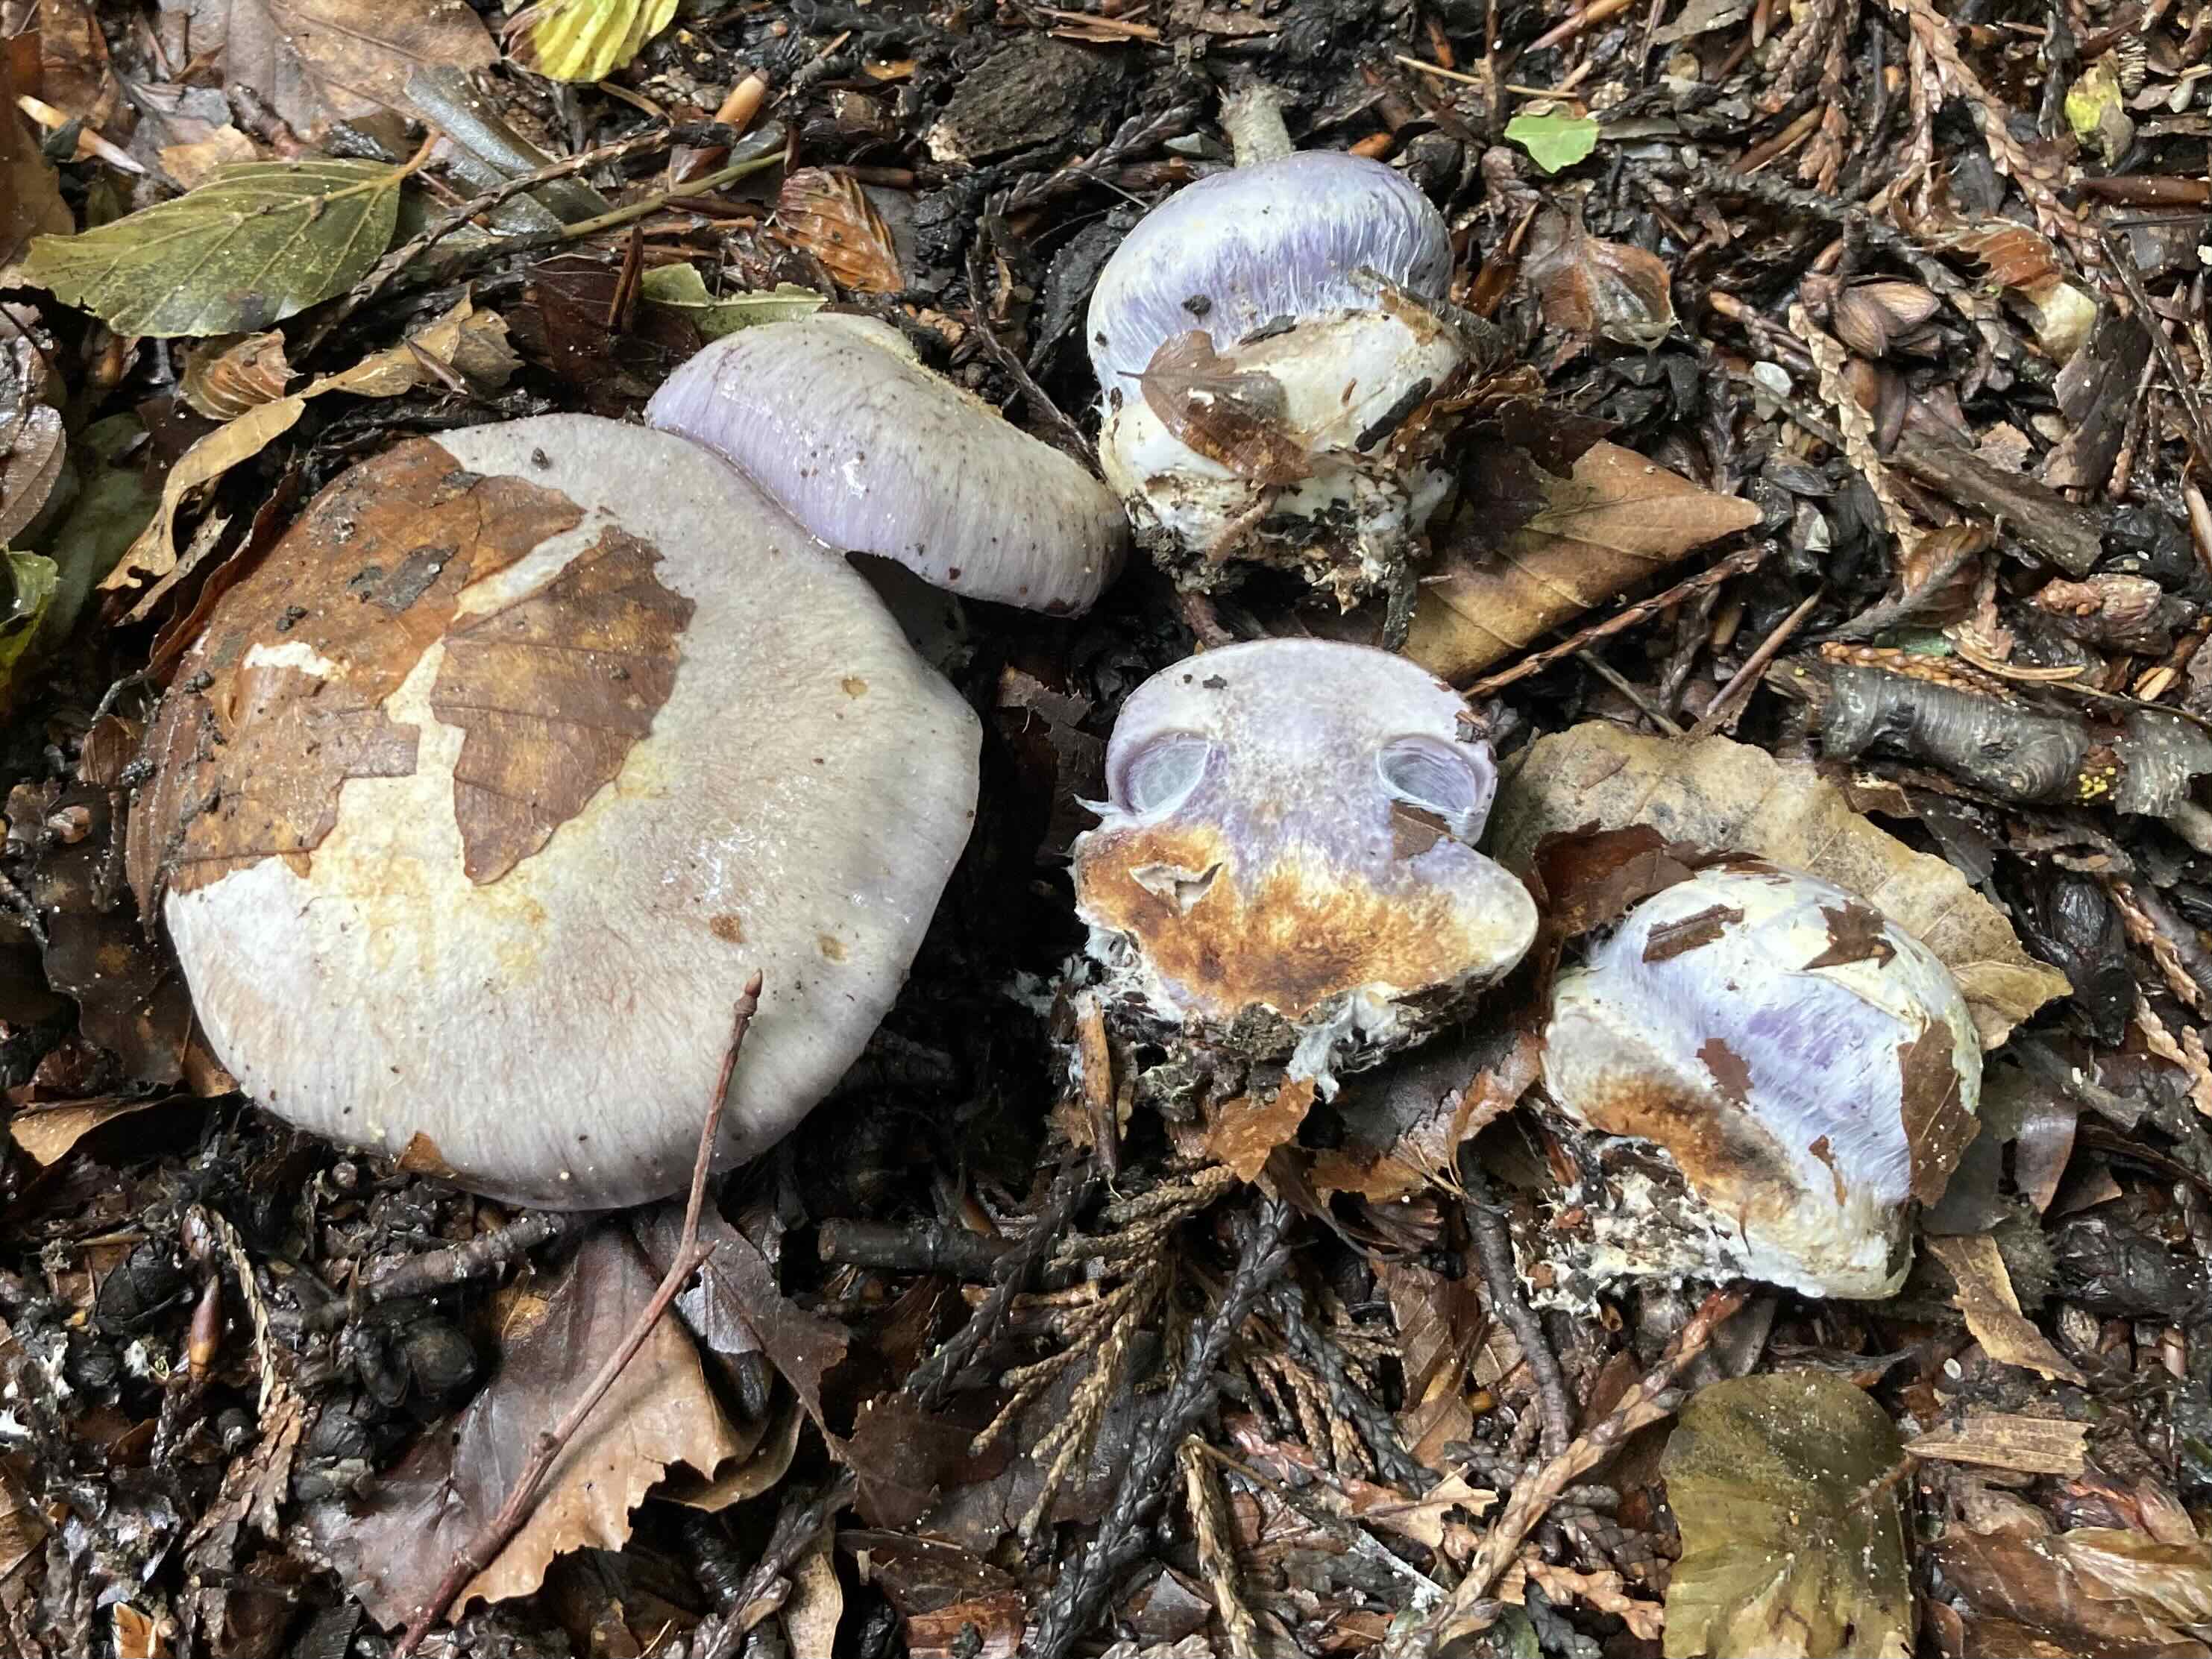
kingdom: Fungi
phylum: Basidiomycota
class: Agaricomycetes
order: Agaricales
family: Cortinariaceae
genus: Cortinarius
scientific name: Cortinarius caerulescens
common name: blåkødet slørhat
